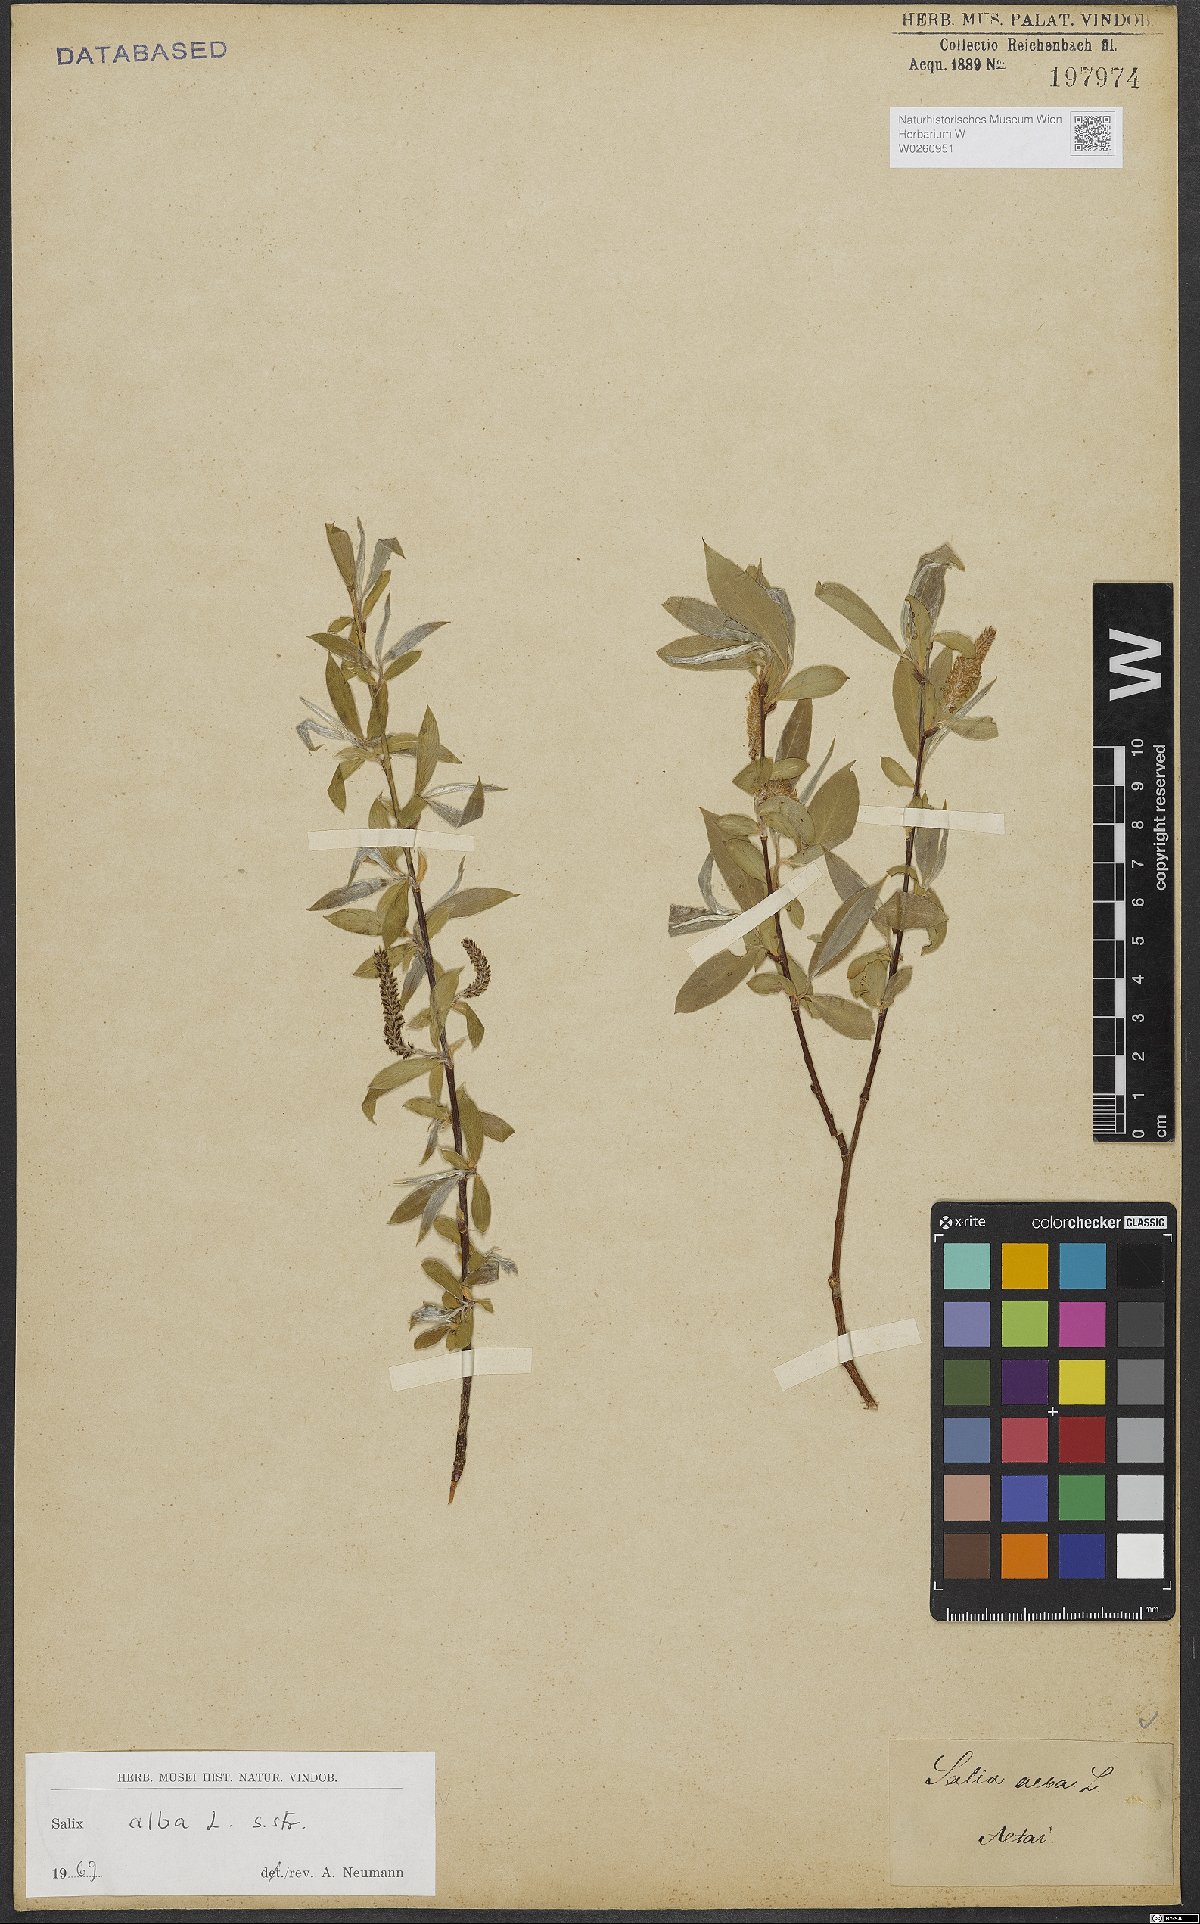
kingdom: Plantae
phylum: Tracheophyta
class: Magnoliopsida
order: Malpighiales
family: Salicaceae
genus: Salix
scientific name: Salix alba
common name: White willow
